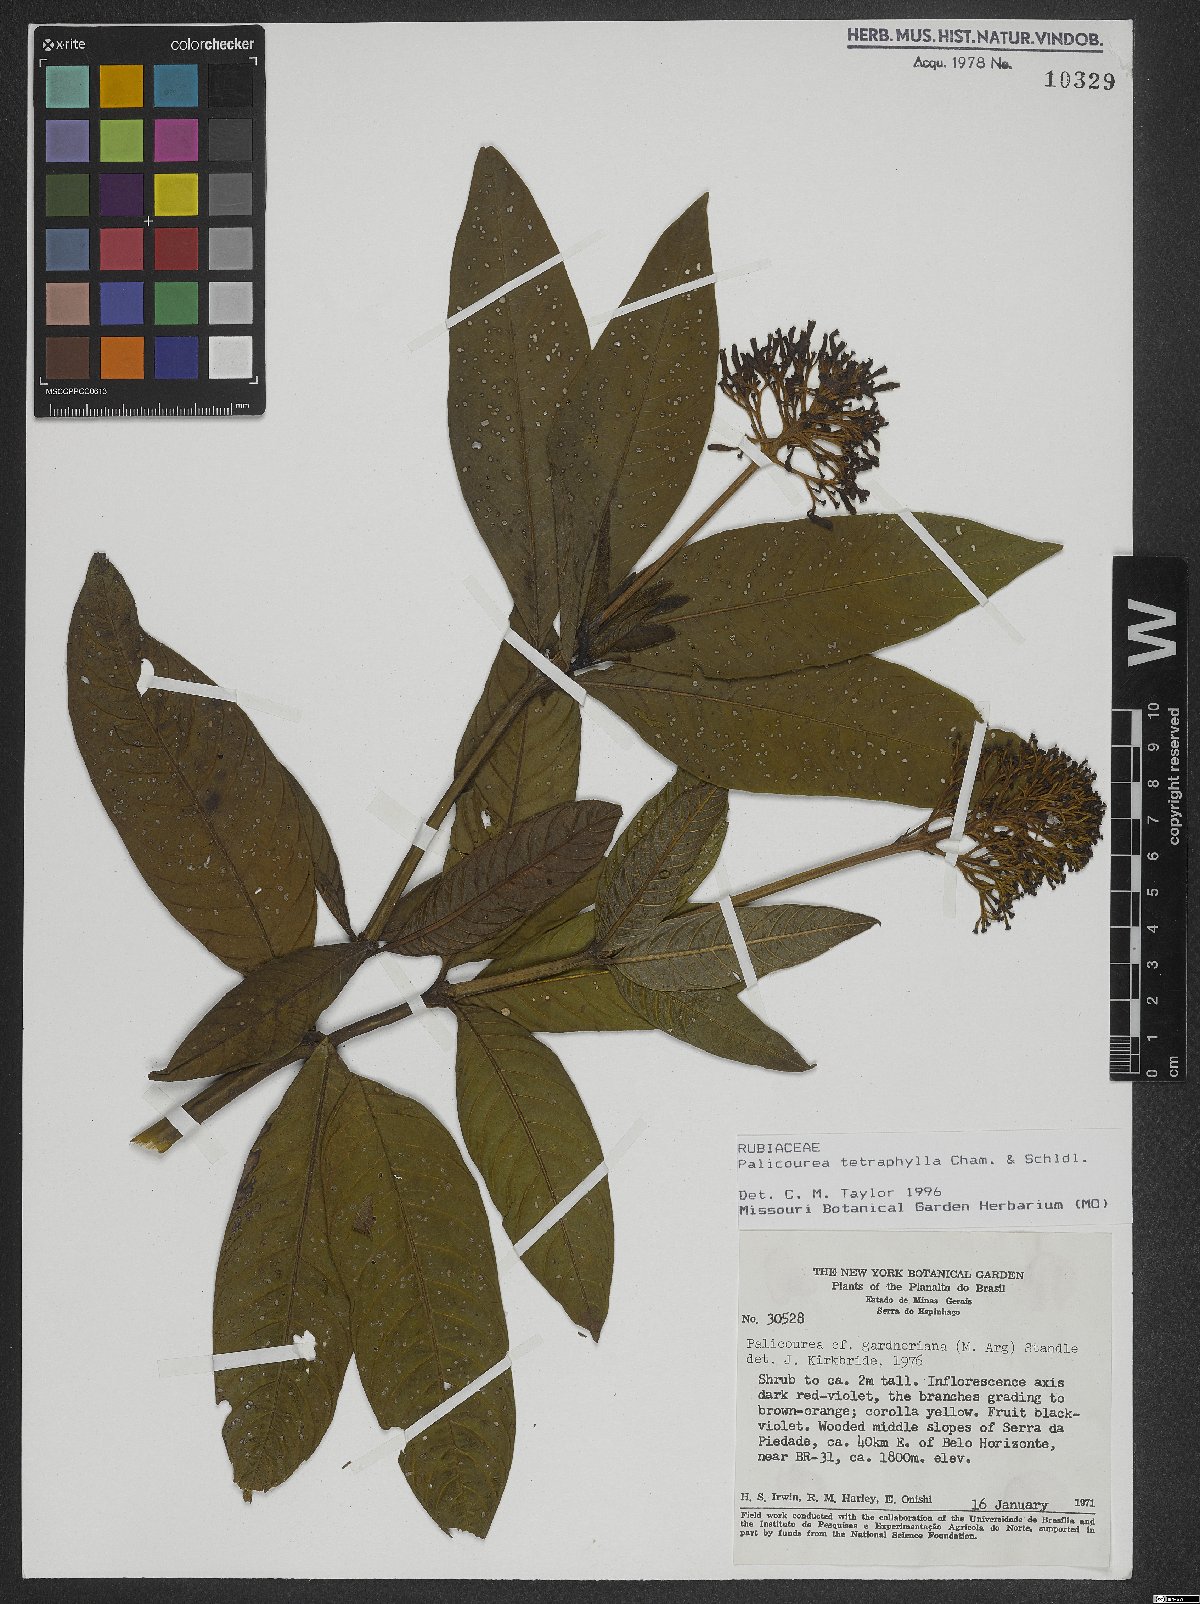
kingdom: Plantae
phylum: Tracheophyta
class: Magnoliopsida
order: Gentianales
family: Rubiaceae
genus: Palicourea
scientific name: Palicourea tetraphylla
